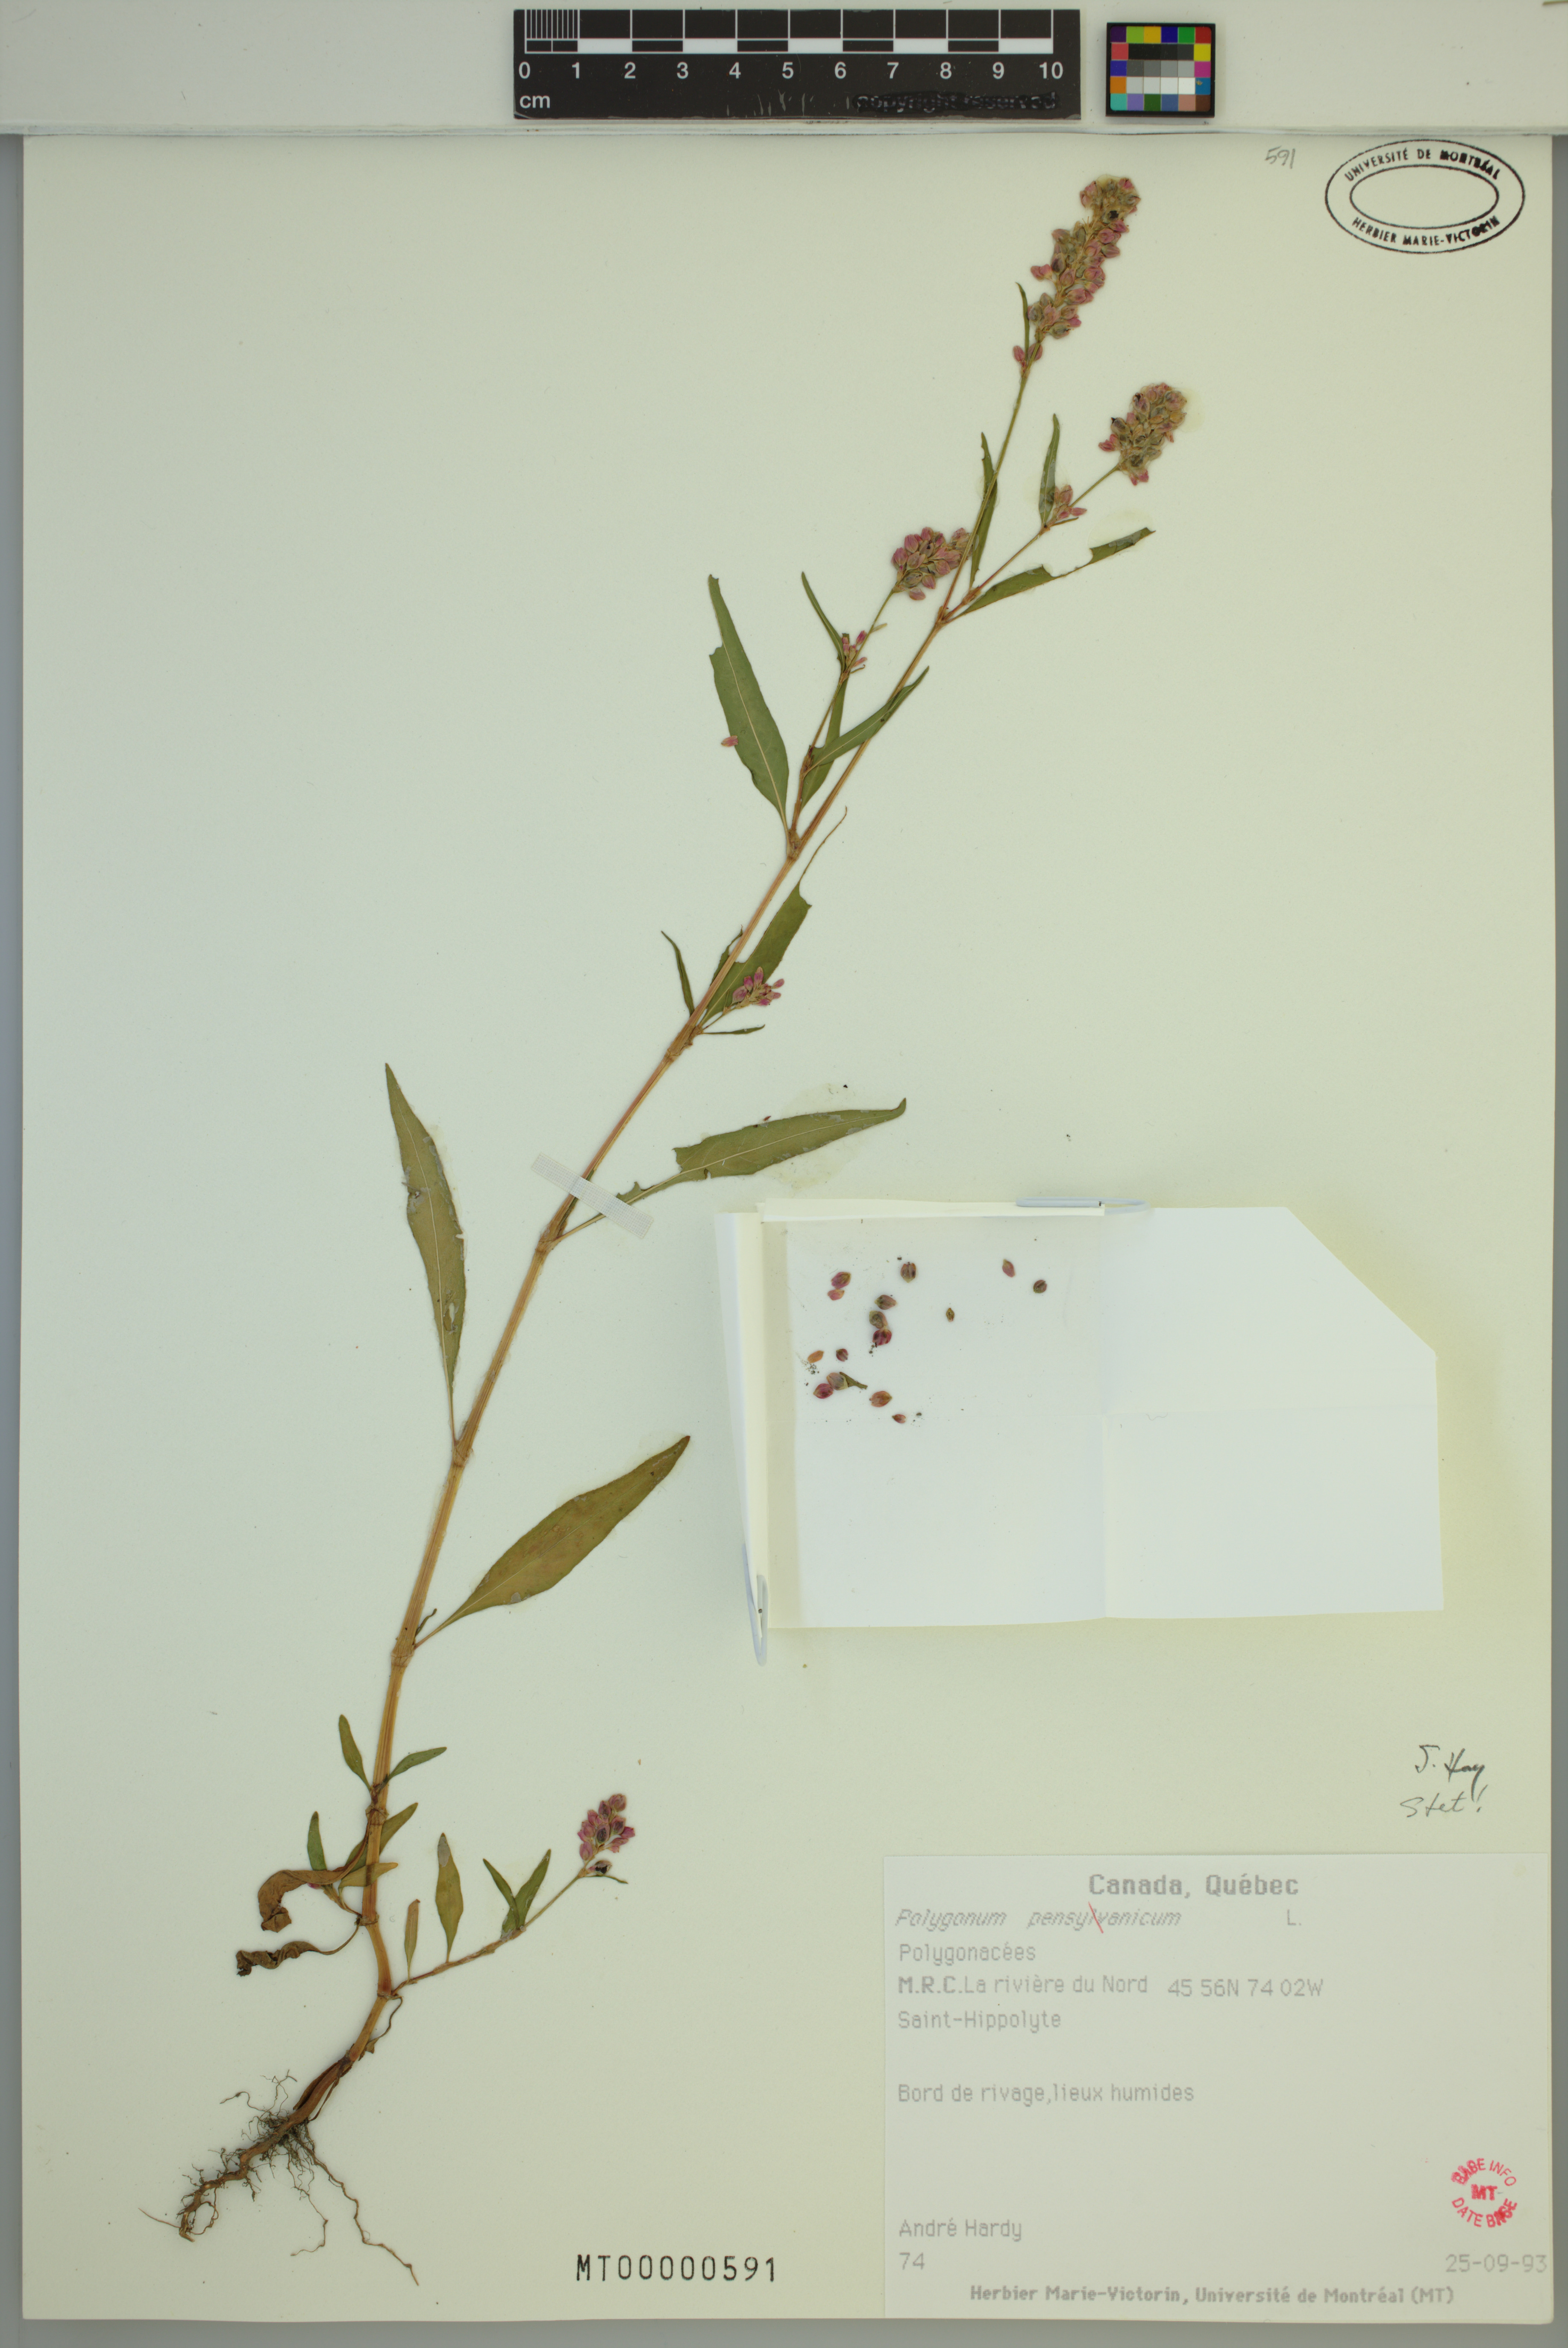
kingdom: Plantae
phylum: Tracheophyta
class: Magnoliopsida
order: Caryophyllales
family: Polygonaceae
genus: Persicaria
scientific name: Persicaria pensylvanica
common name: Pinkweed
